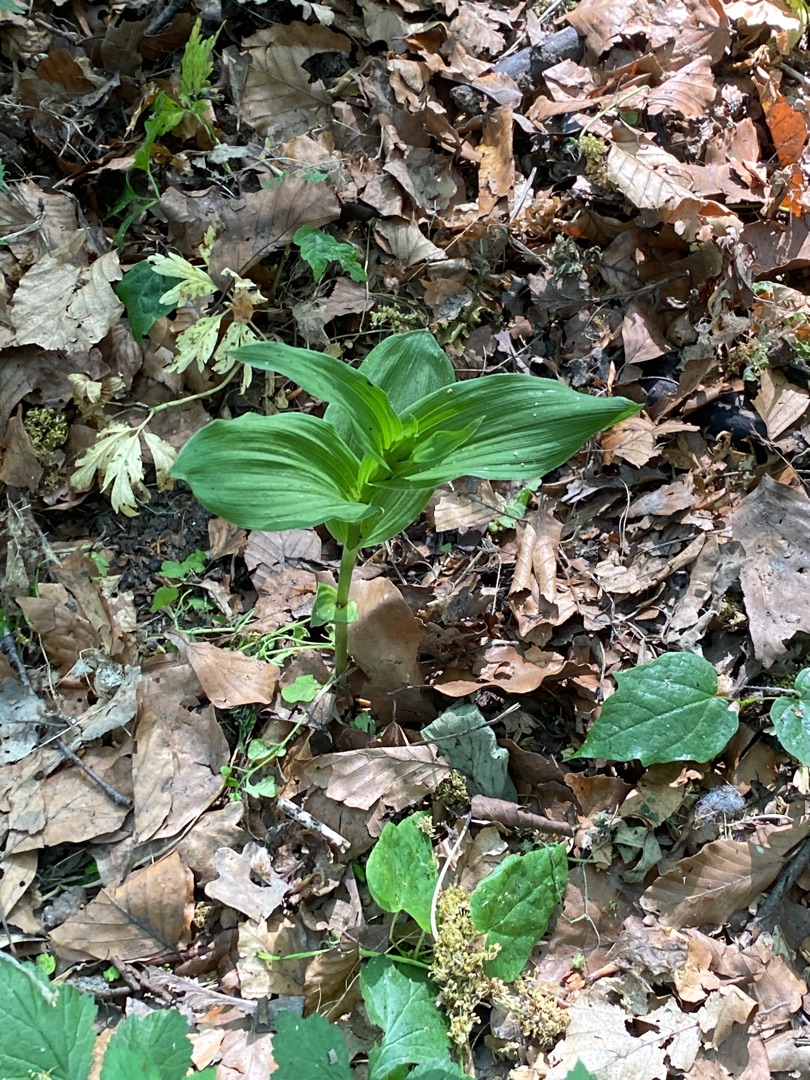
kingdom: Plantae
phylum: Tracheophyta
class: Liliopsida
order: Asparagales
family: Orchidaceae
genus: Epipactis
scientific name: Epipactis helleborine
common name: Skov-hullæbe
